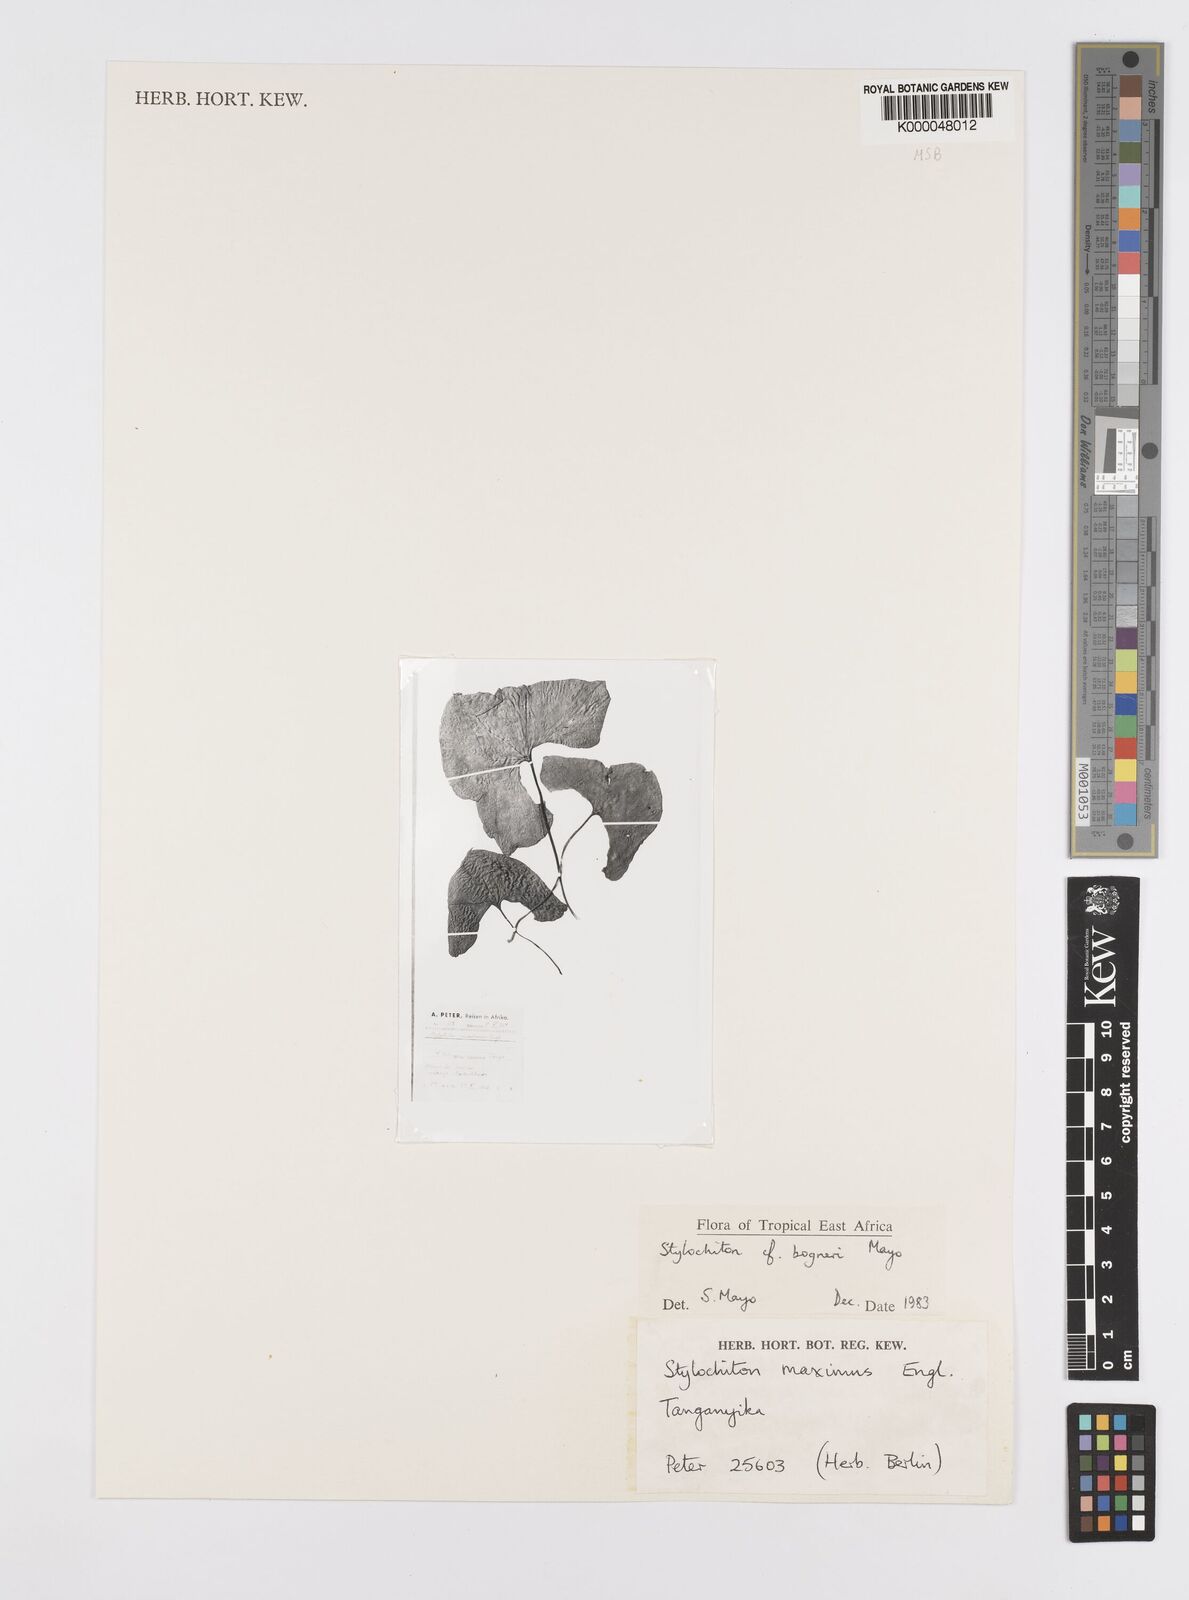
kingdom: Plantae
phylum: Tracheophyta
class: Liliopsida
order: Alismatales
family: Araceae
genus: Stylochaeton
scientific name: Stylochaeton bogneri
